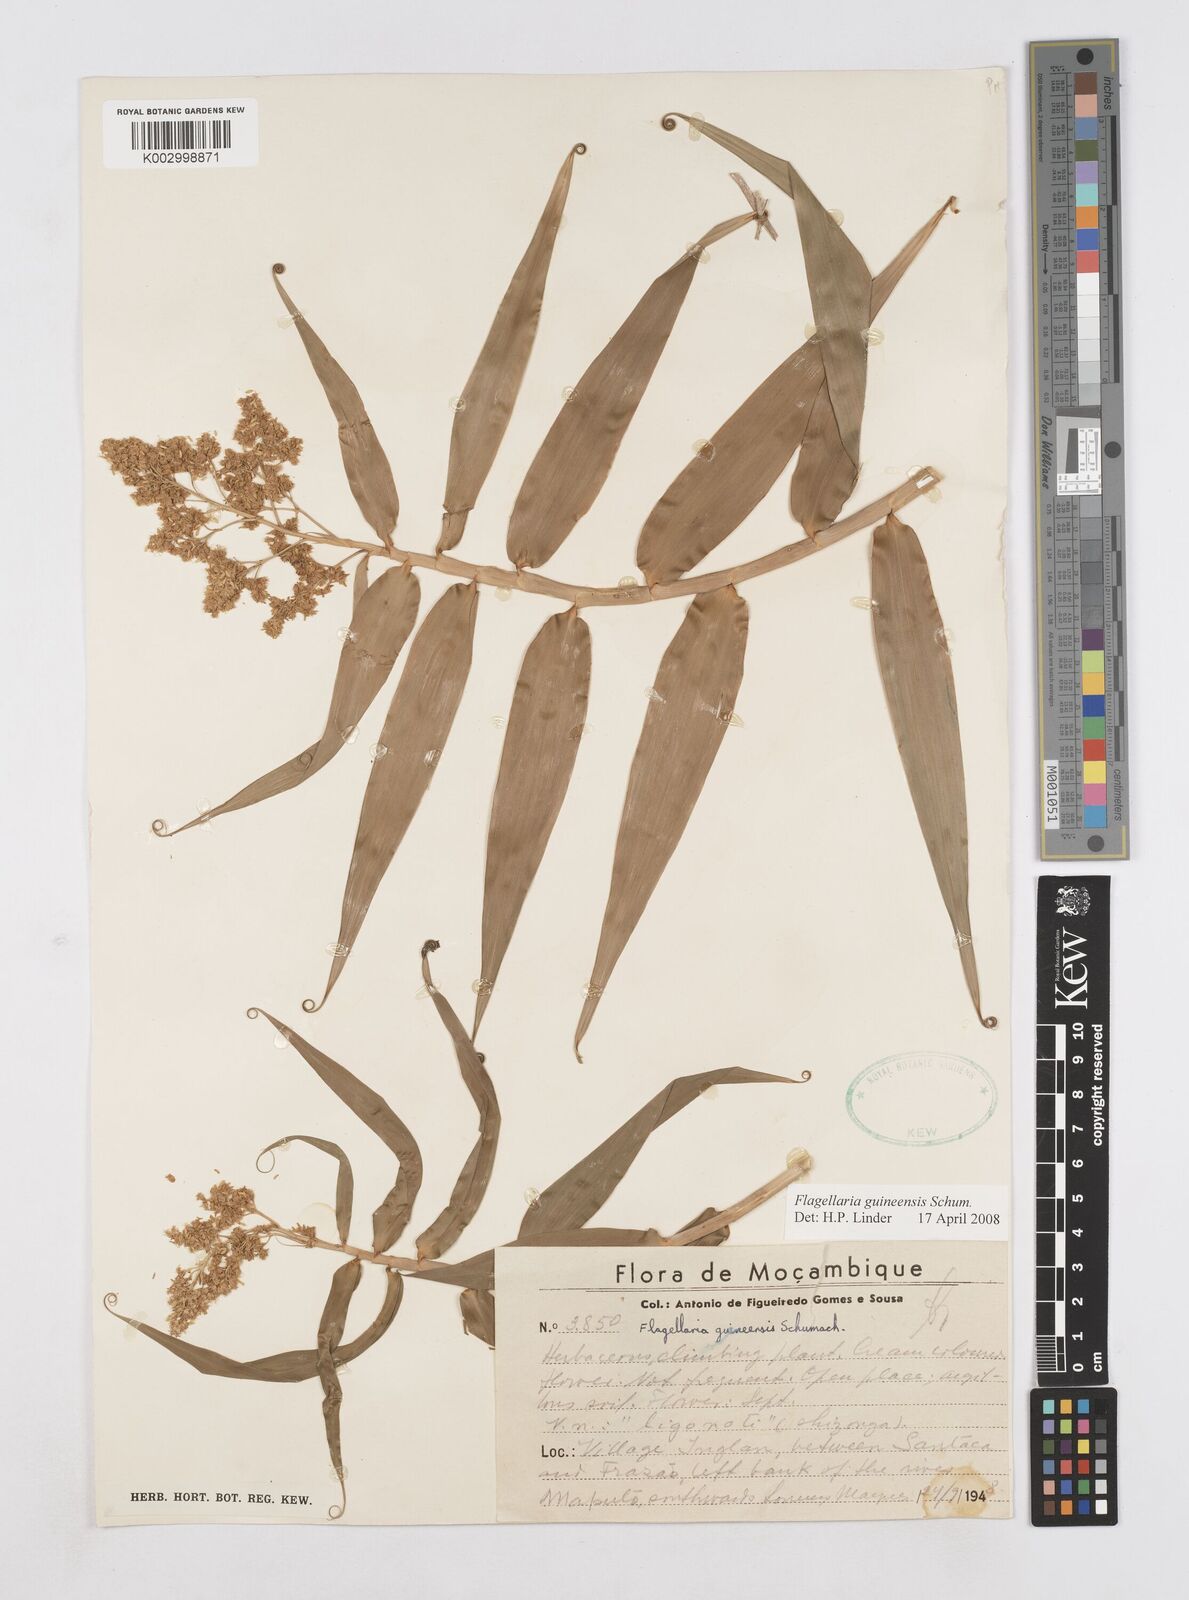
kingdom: Plantae
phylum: Tracheophyta
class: Liliopsida
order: Poales
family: Flagellariaceae
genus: Flagellaria
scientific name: Flagellaria guineensis
